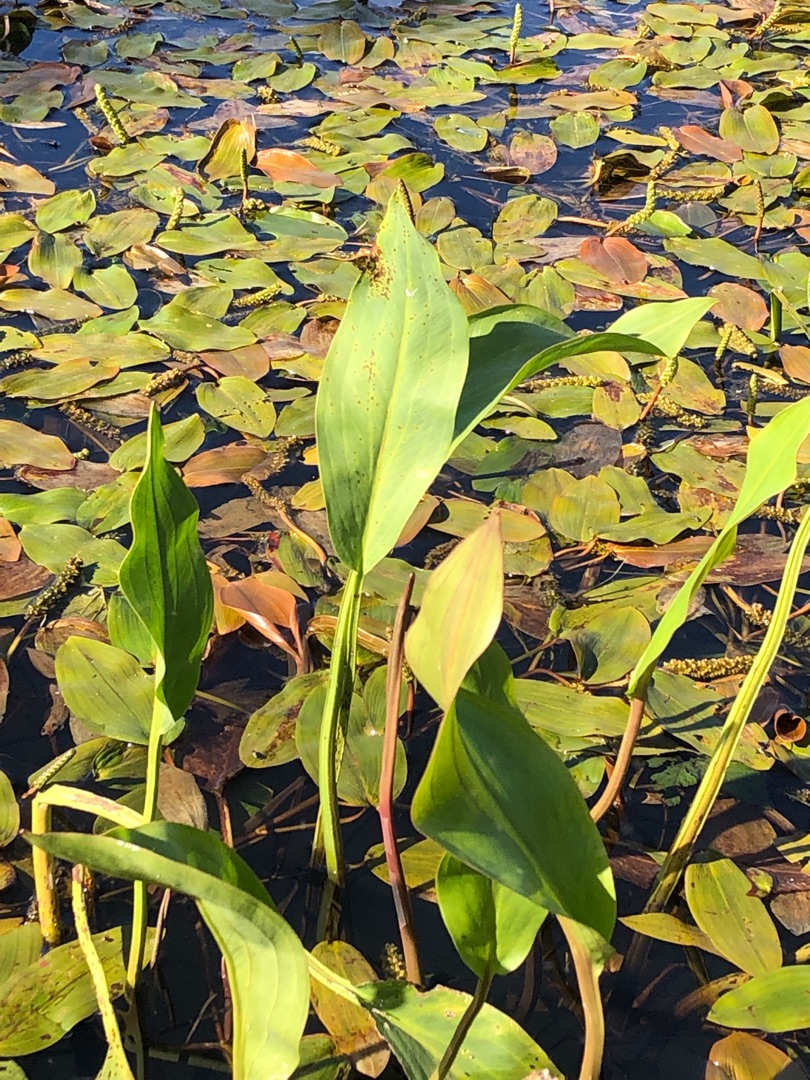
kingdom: Plantae
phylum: Tracheophyta
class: Liliopsida
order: Alismatales
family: Alismataceae
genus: Alisma
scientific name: Alisma plantago-aquatica
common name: Vejbred-skeblad
